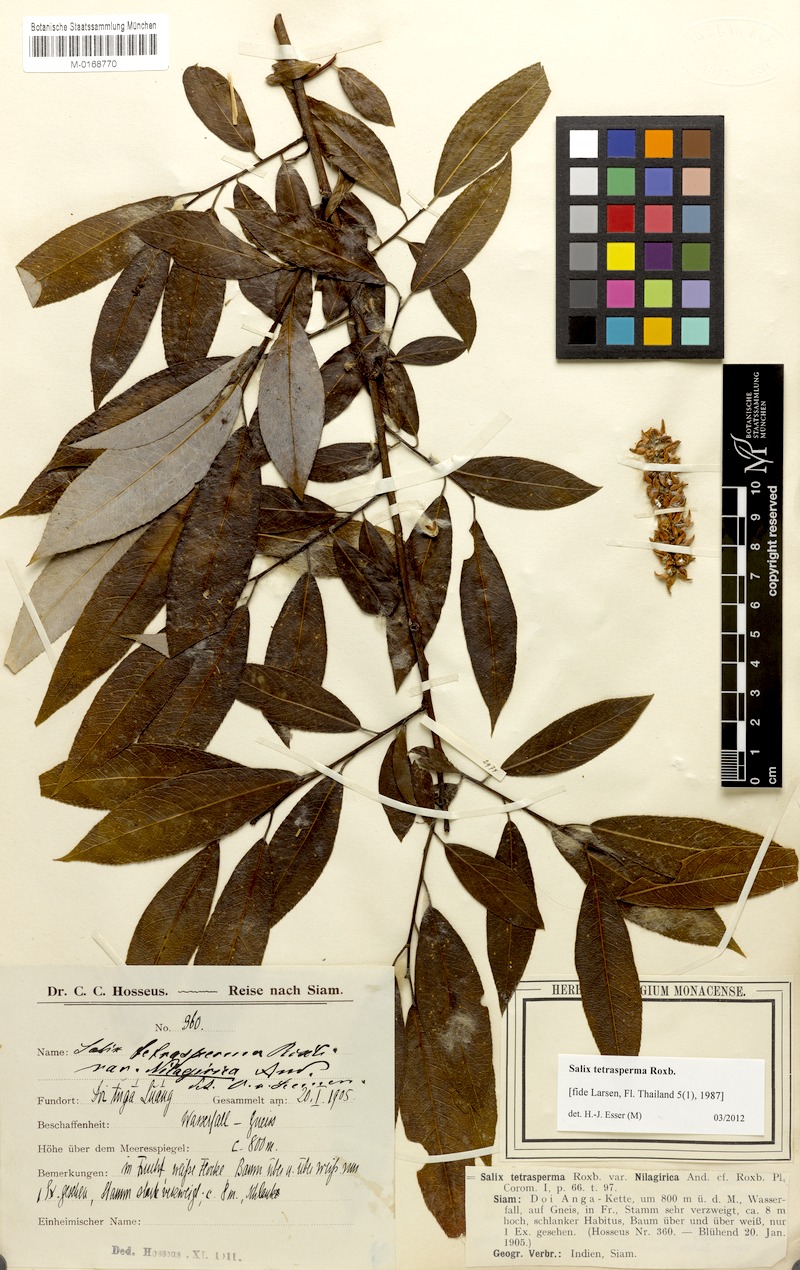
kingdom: Plantae
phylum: Tracheophyta
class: Magnoliopsida
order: Malpighiales
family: Salicaceae
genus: Salix
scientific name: Salix tetrasperma
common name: Indian willow
